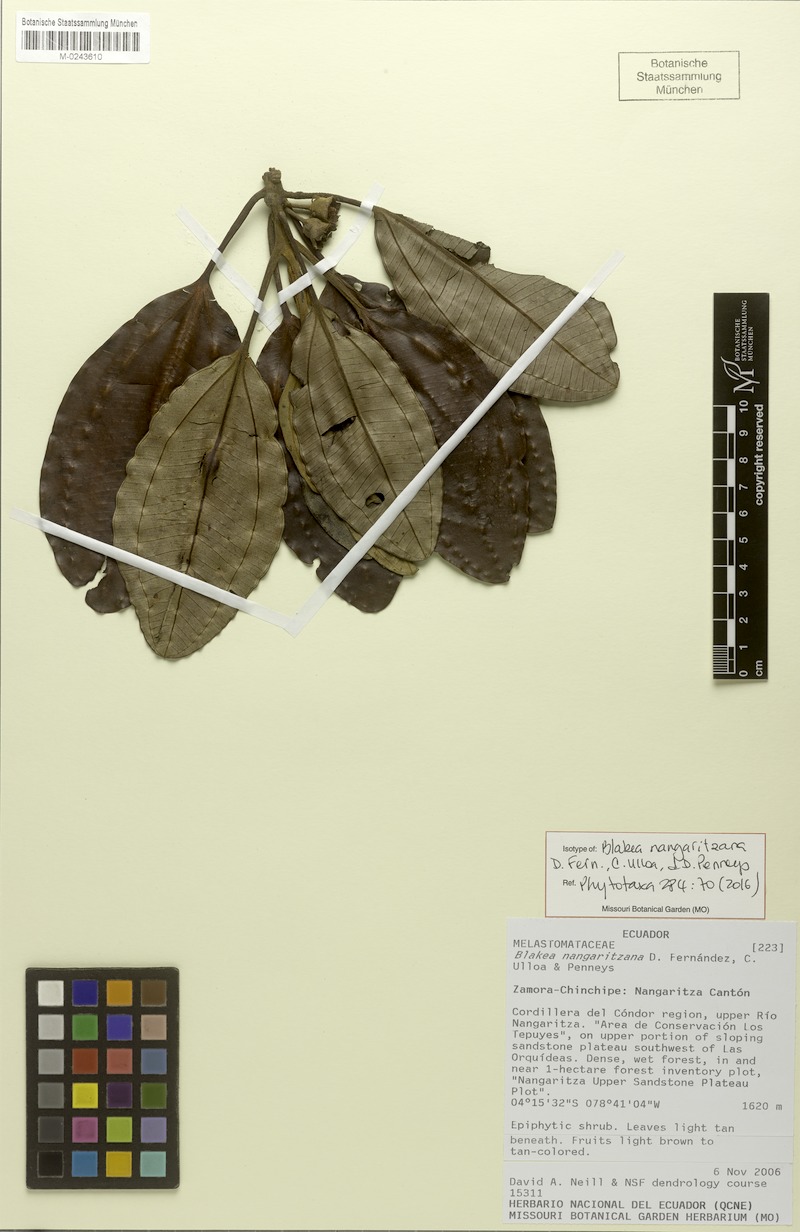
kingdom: Plantae
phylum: Tracheophyta
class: Magnoliopsida
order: Myrtales
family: Melastomataceae
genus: Blakea
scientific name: Blakea nangaritzana
